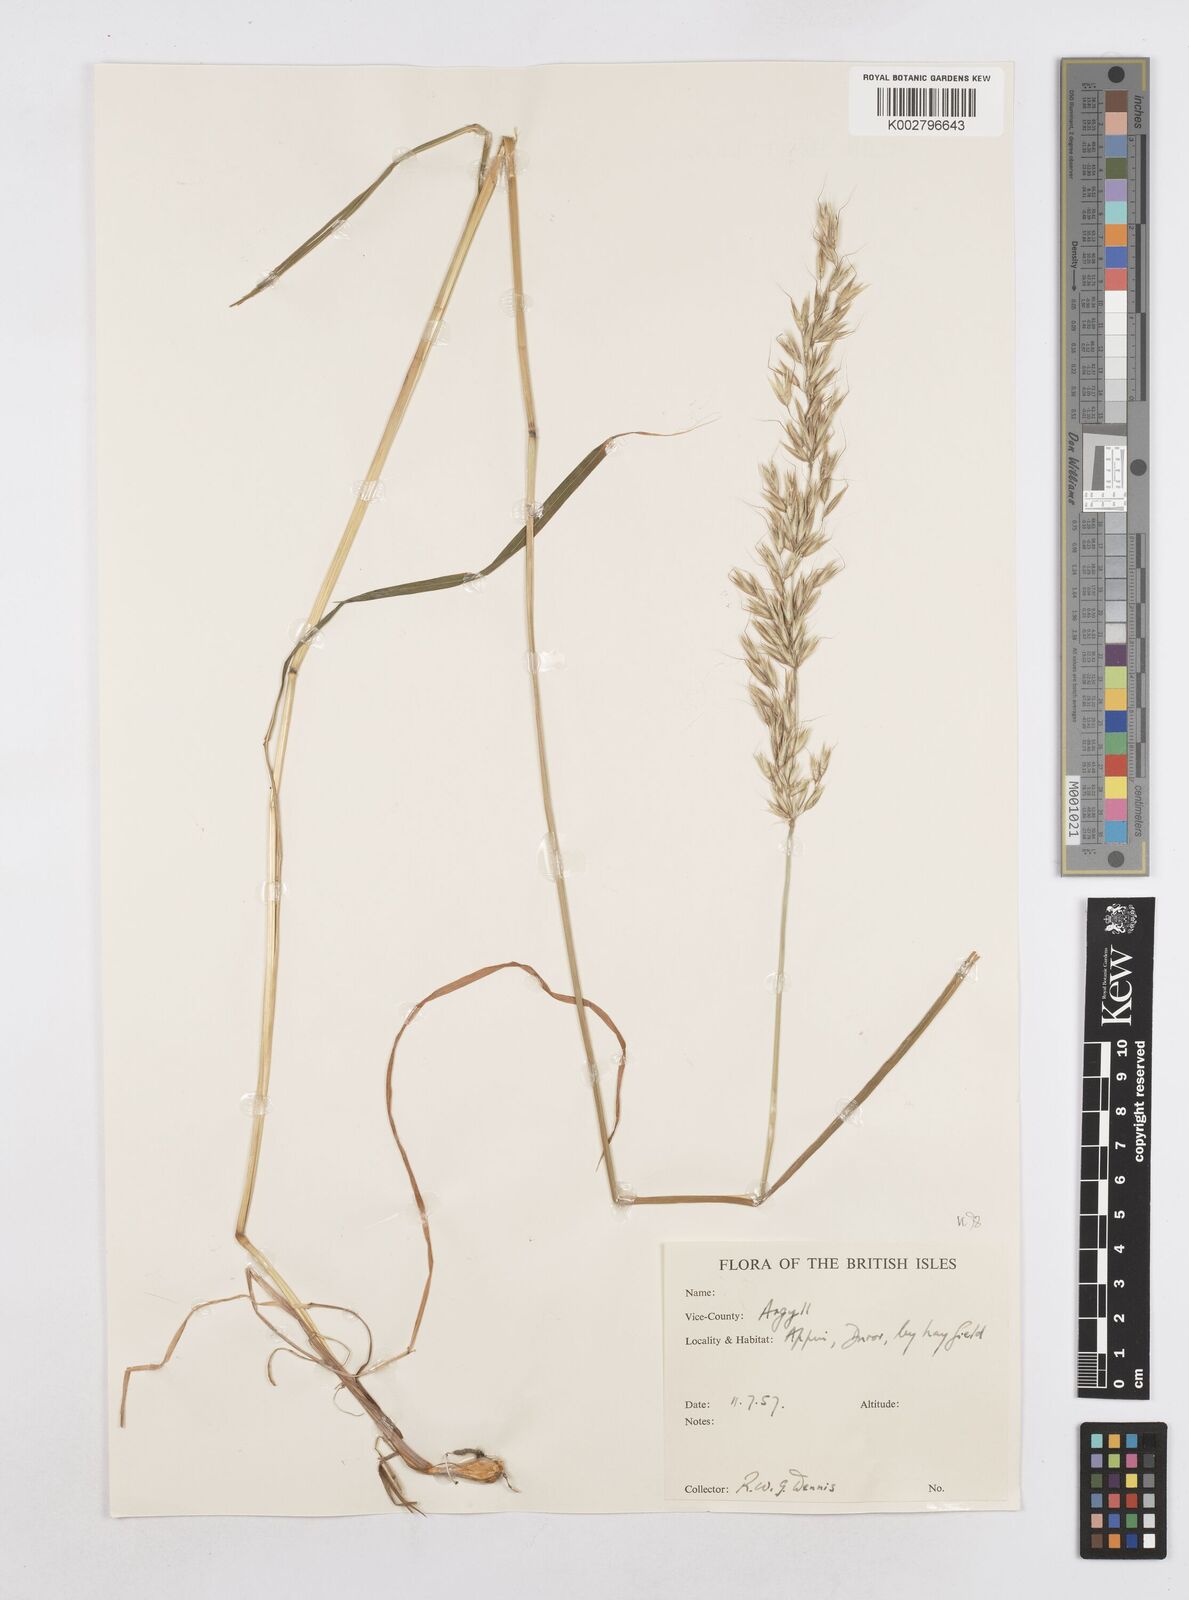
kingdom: Plantae
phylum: Tracheophyta
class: Liliopsida
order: Poales
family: Poaceae
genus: Arrhenatherum
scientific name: Arrhenatherum elatius
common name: Tall oatgrass
